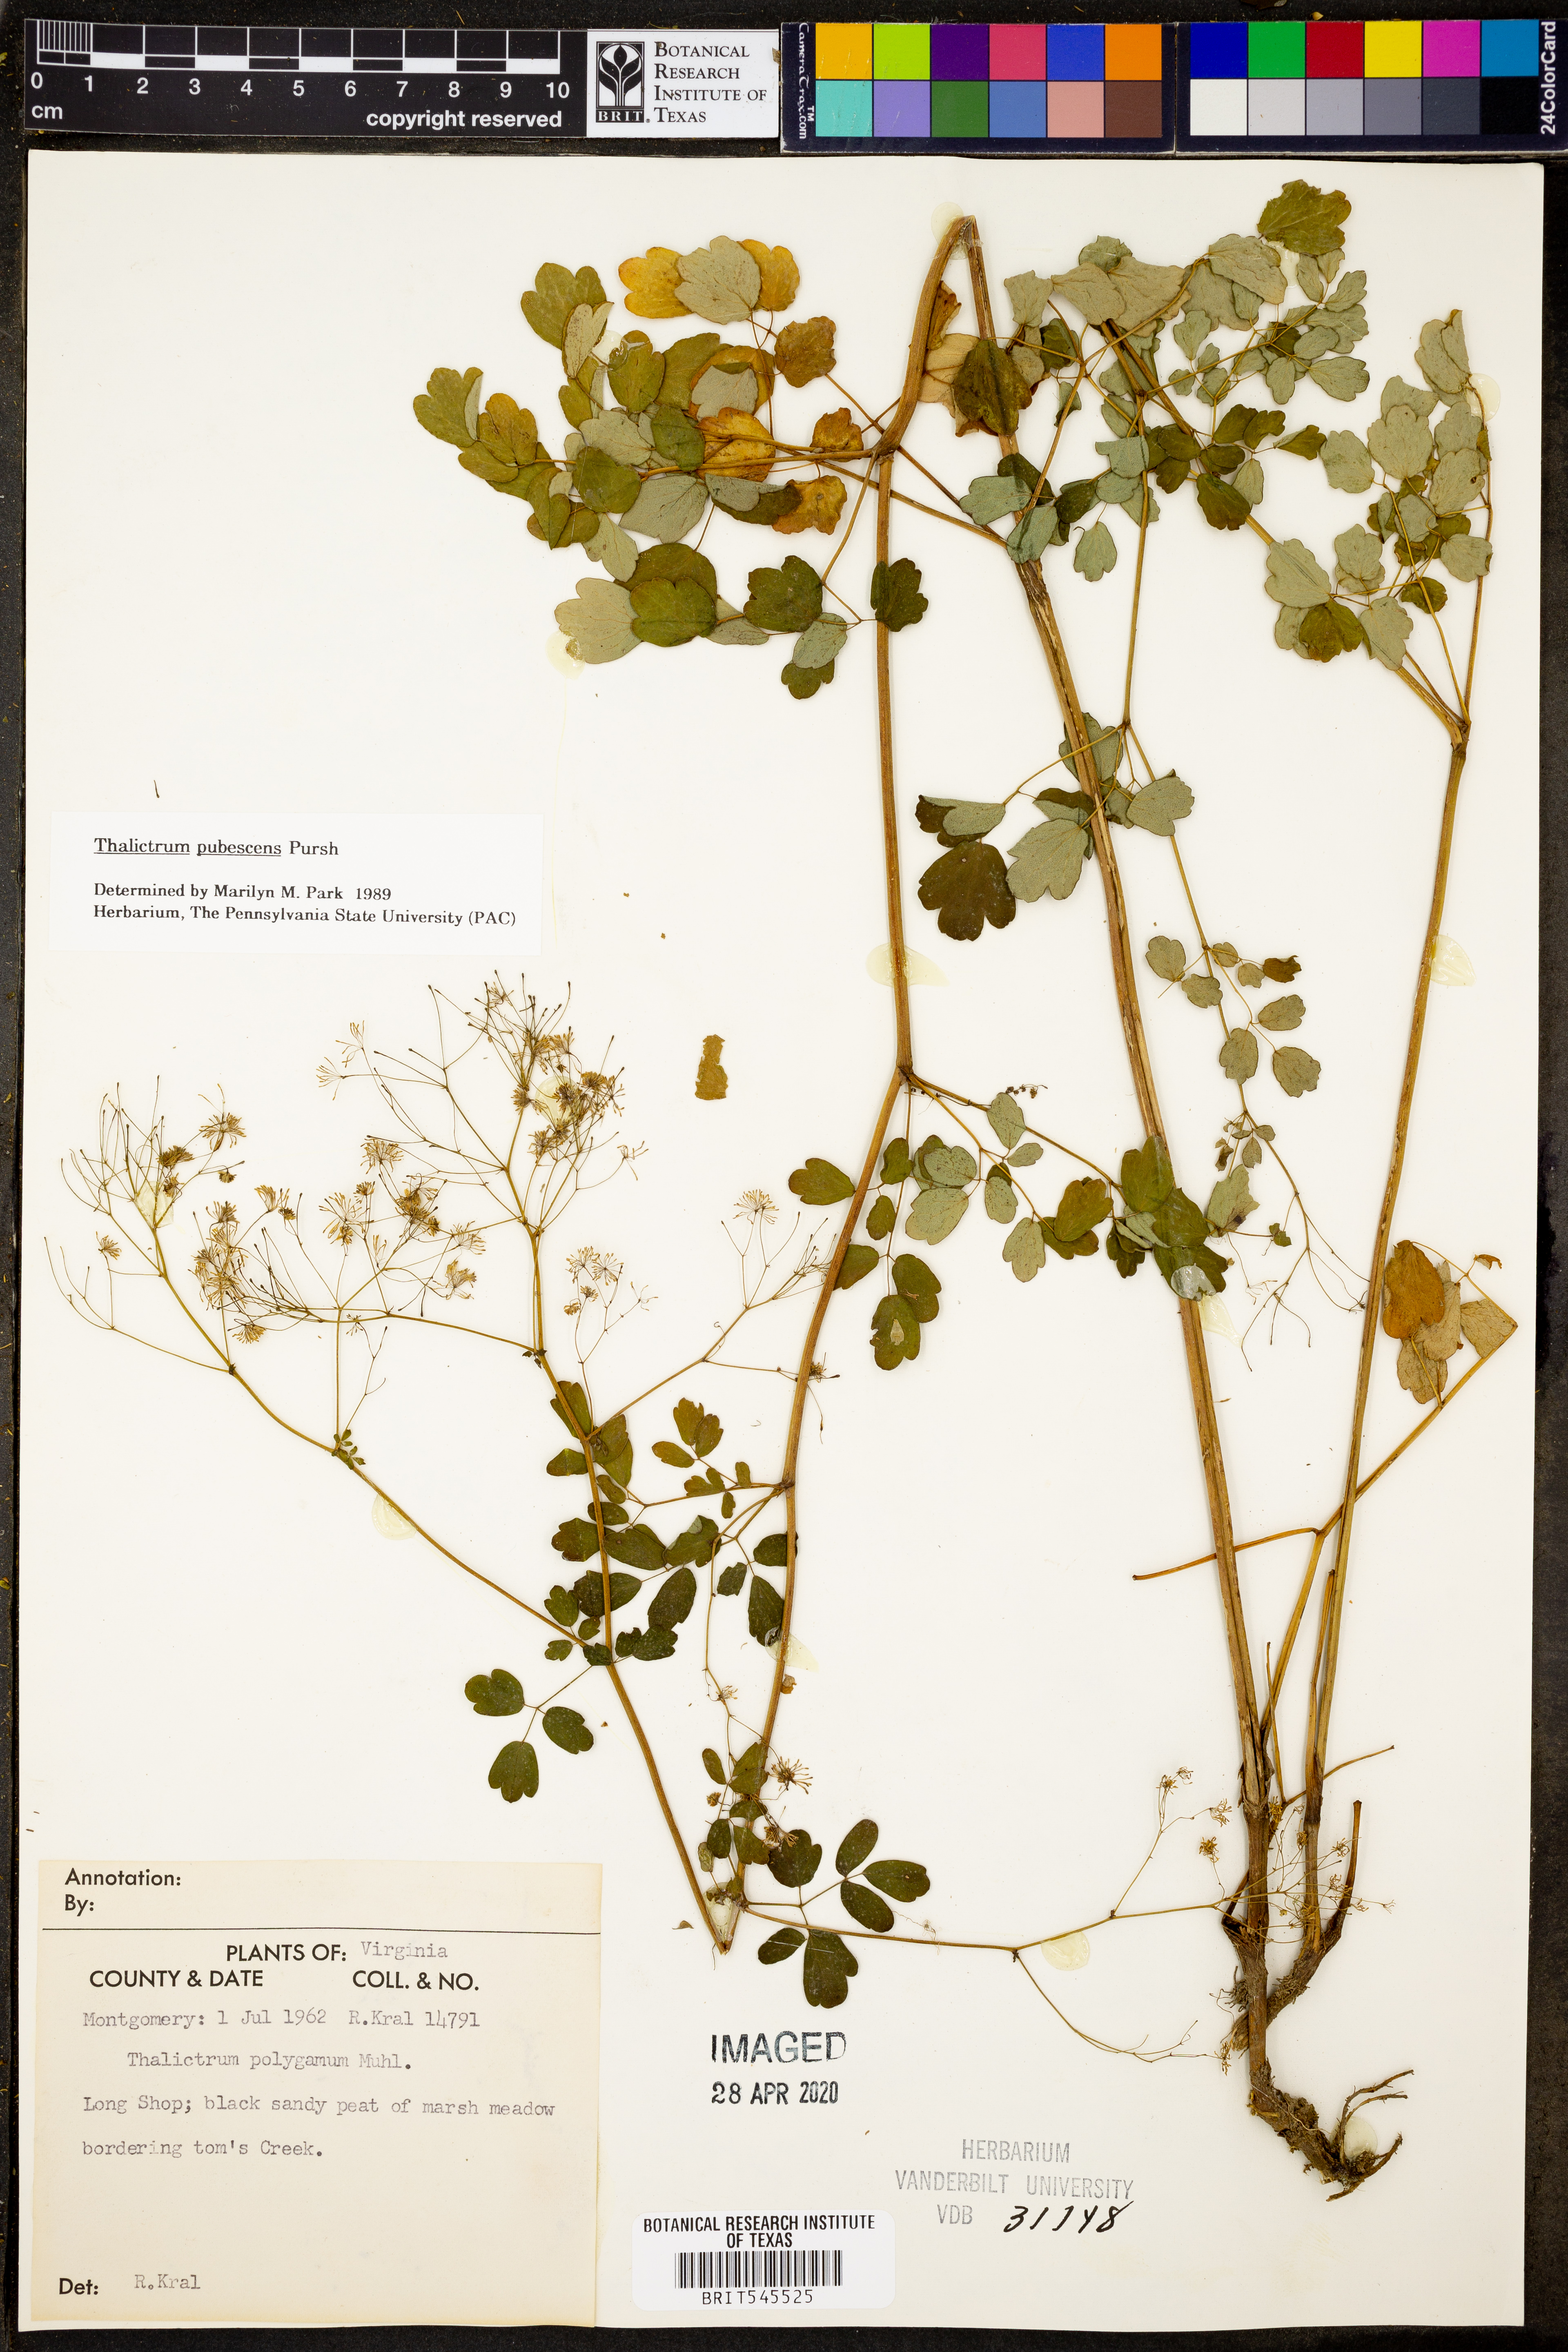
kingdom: Plantae
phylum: Tracheophyta
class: Magnoliopsida
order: Ranunculales
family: Ranunculaceae
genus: Thalictrum
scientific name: Thalictrum pubescens
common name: King-of-the-meadow
